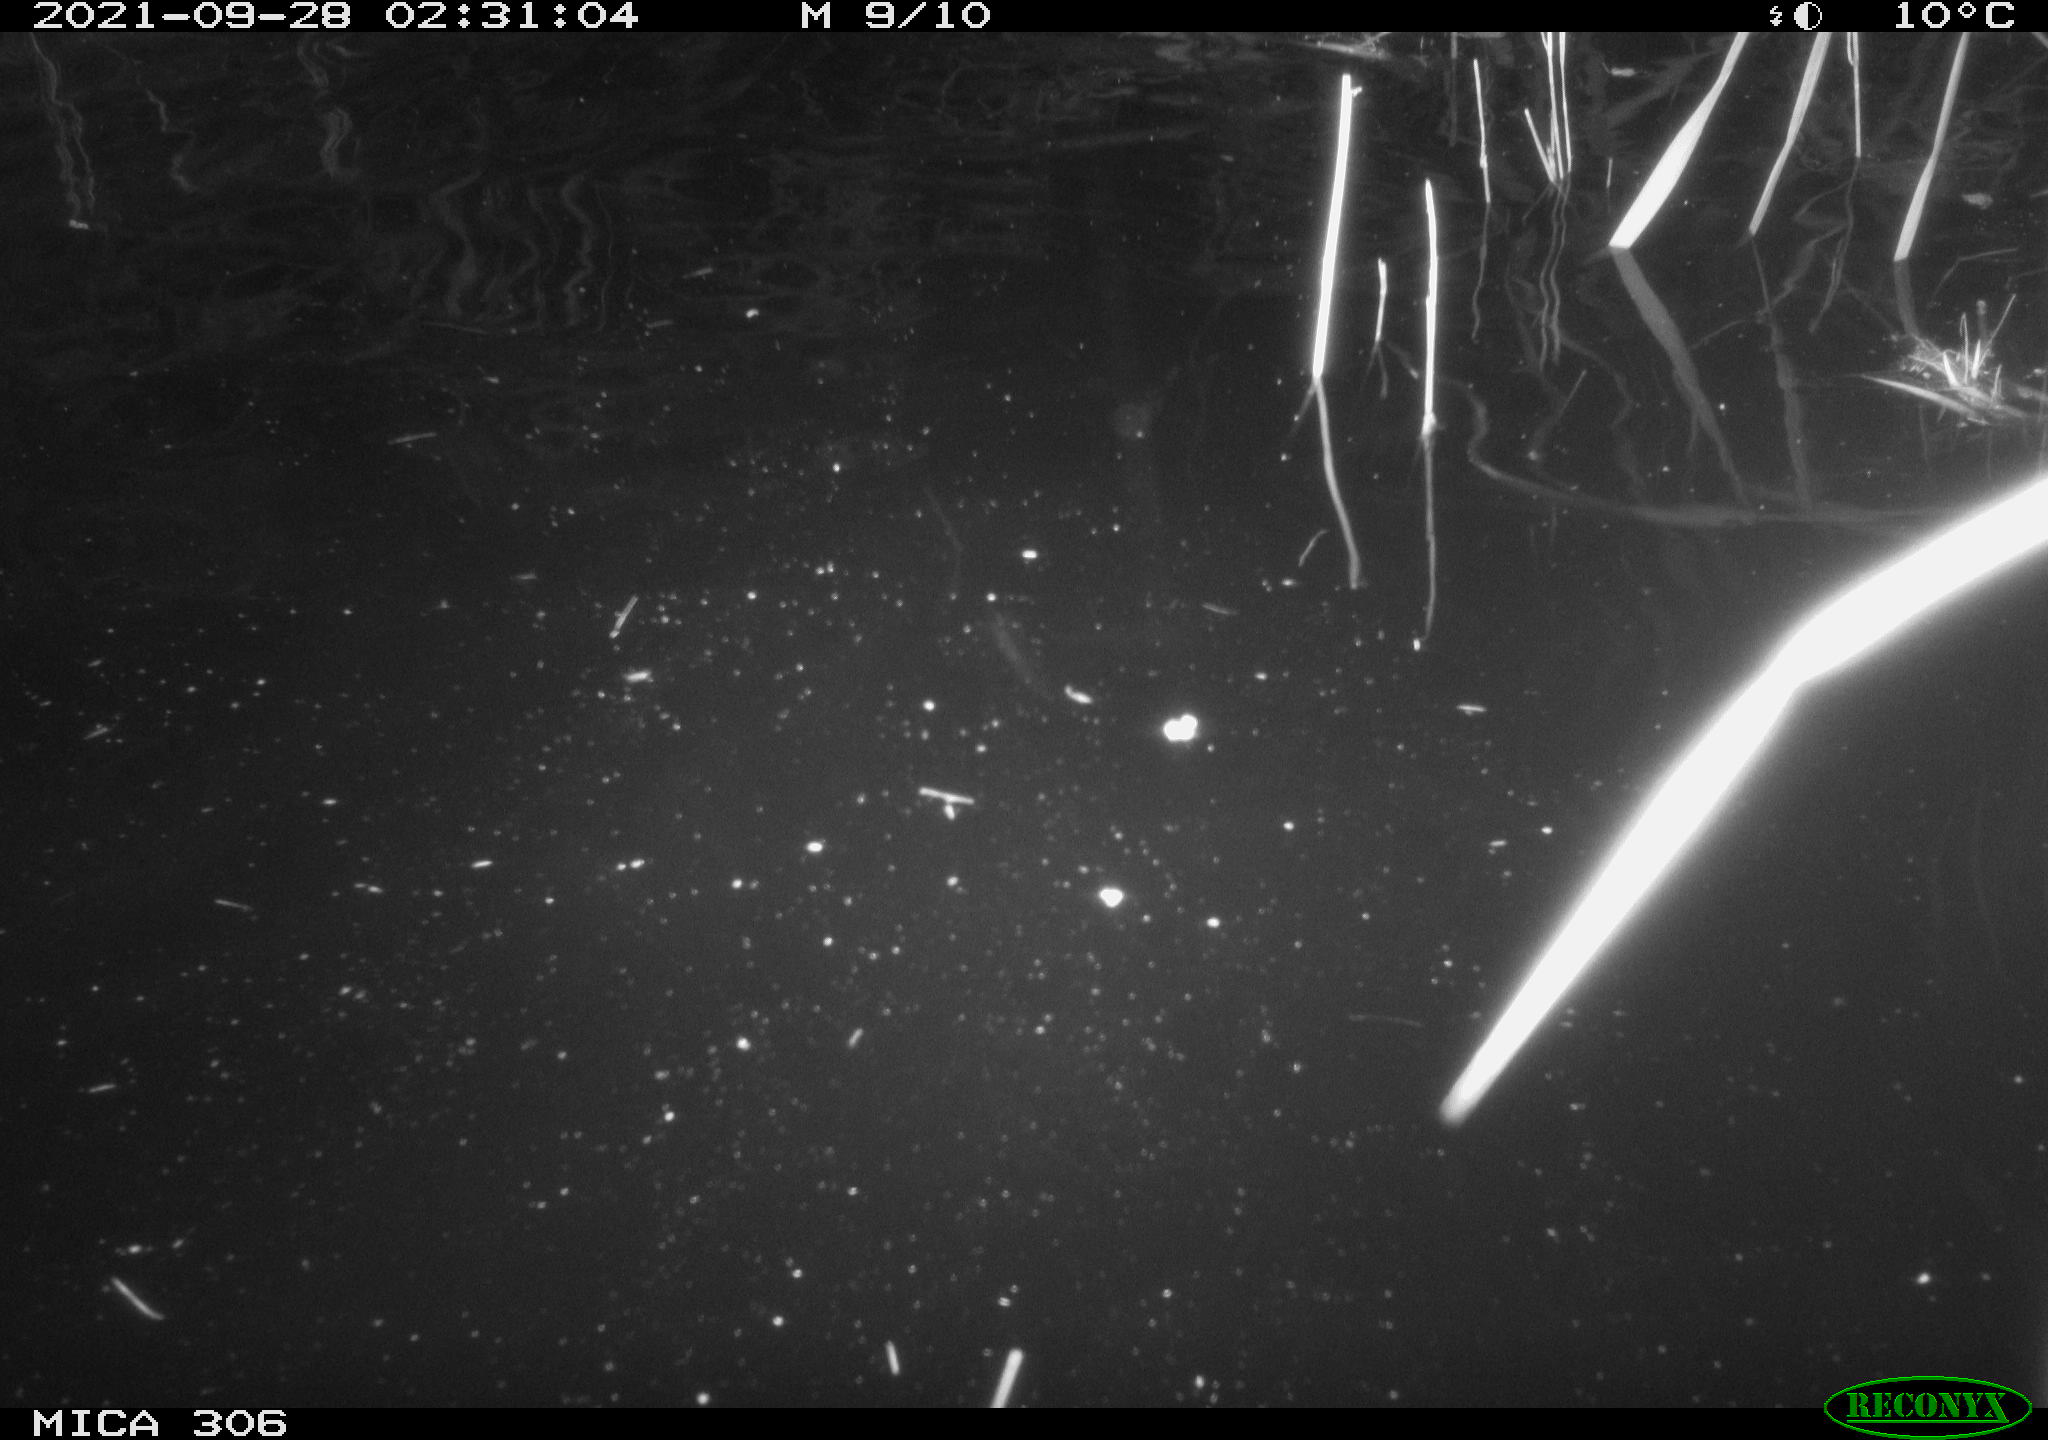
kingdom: Animalia
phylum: Chordata
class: Mammalia
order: Rodentia
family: Cricetidae
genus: Ondatra
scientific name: Ondatra zibethicus
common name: Muskrat
